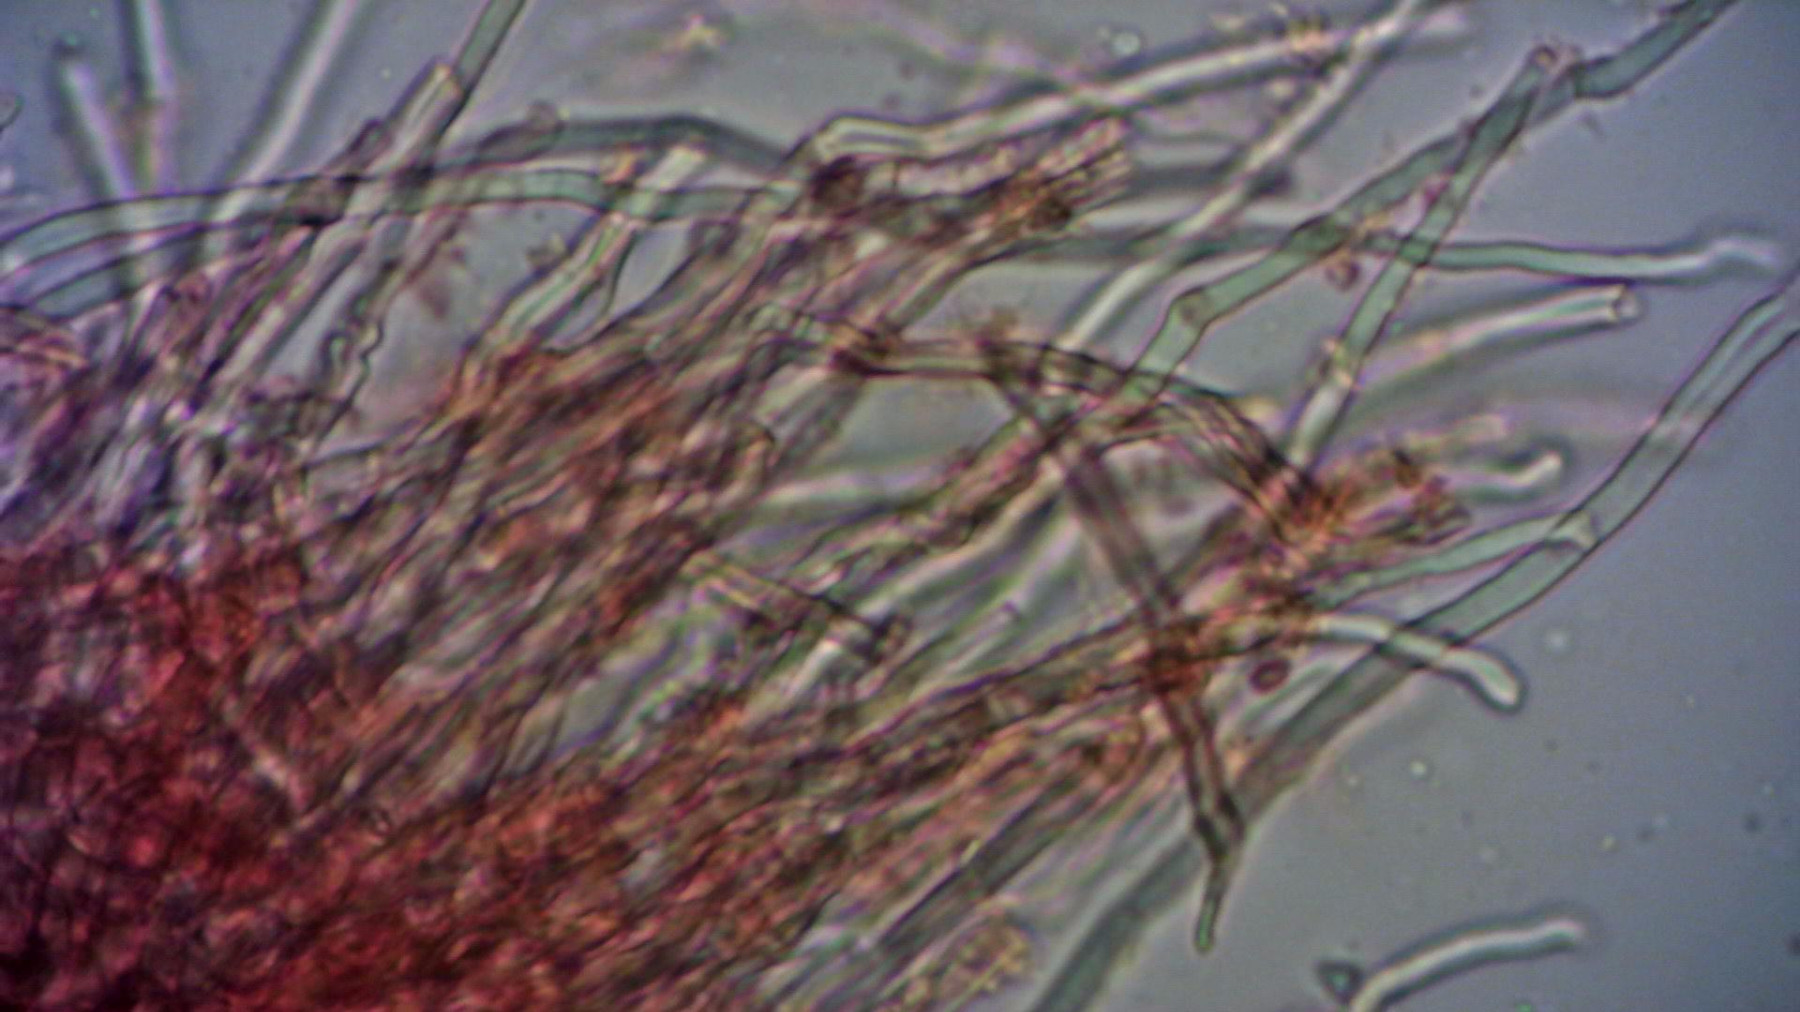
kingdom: Fungi
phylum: Basidiomycota
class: Agaricomycetes
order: Polyporales
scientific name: Polyporales
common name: poresvampordenen
